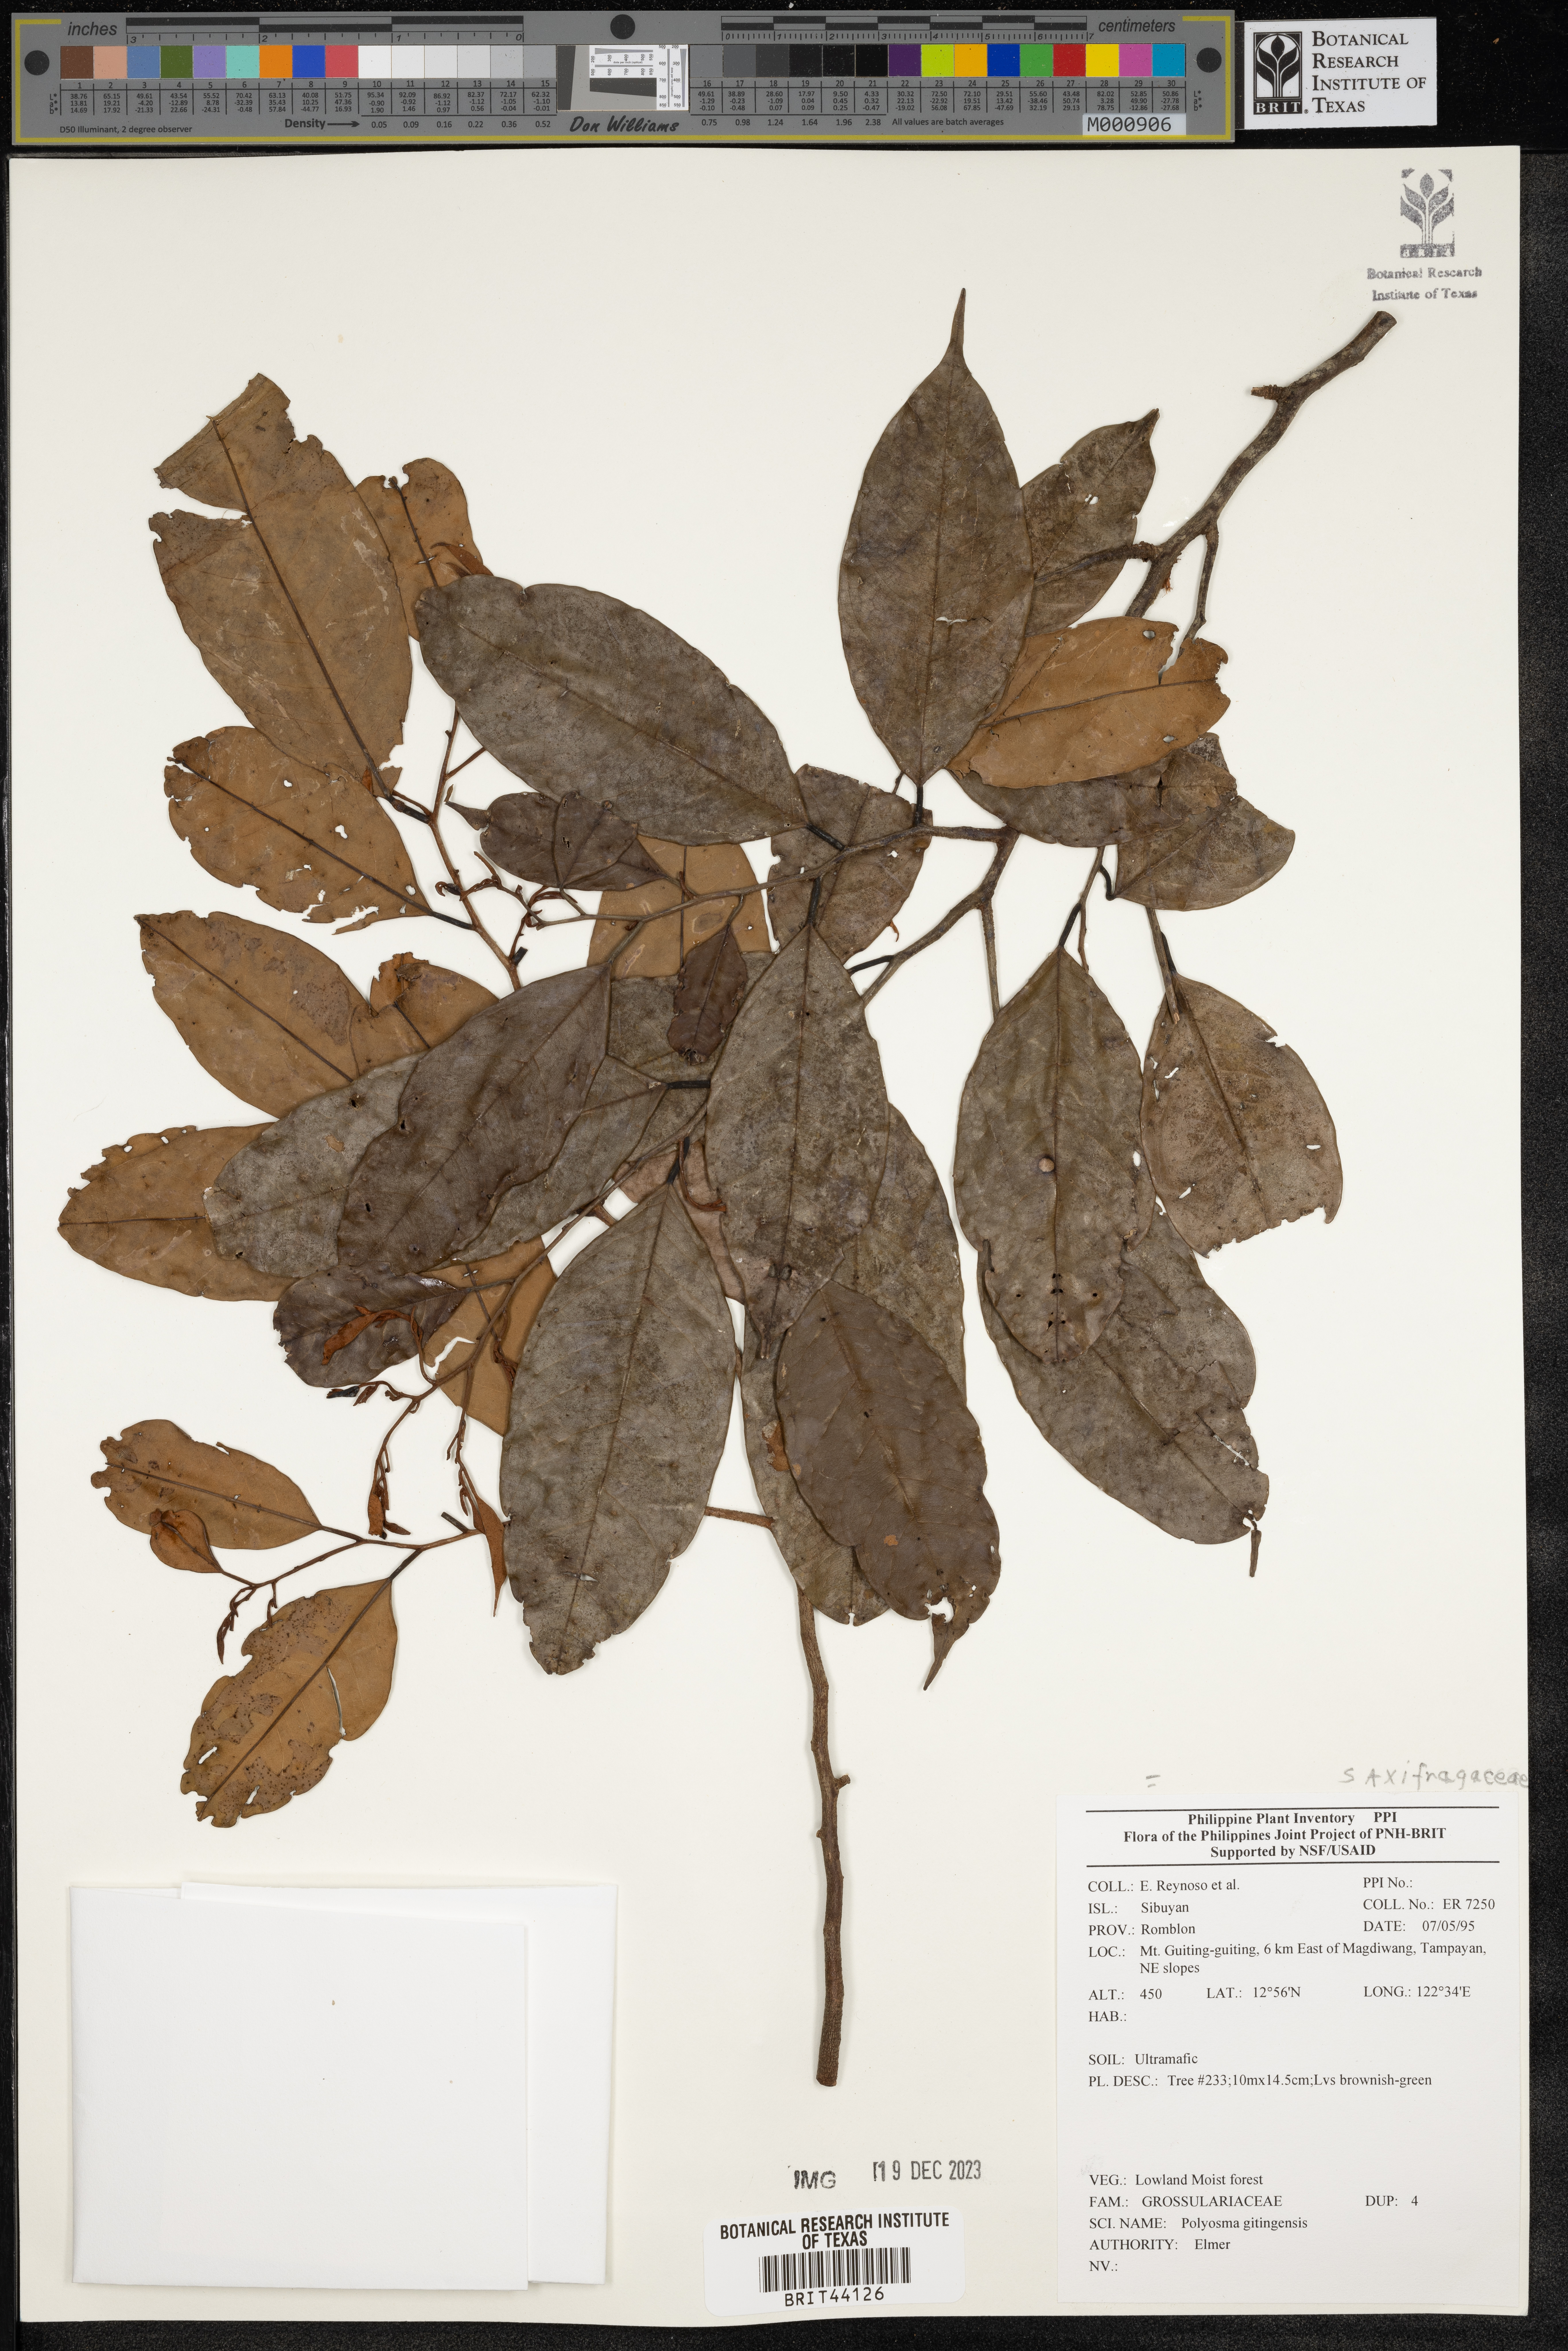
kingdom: Plantae
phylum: Tracheophyta
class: Magnoliopsida
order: Escalloniales
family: Escalloniaceae
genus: Polyosma
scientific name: Polyosma
